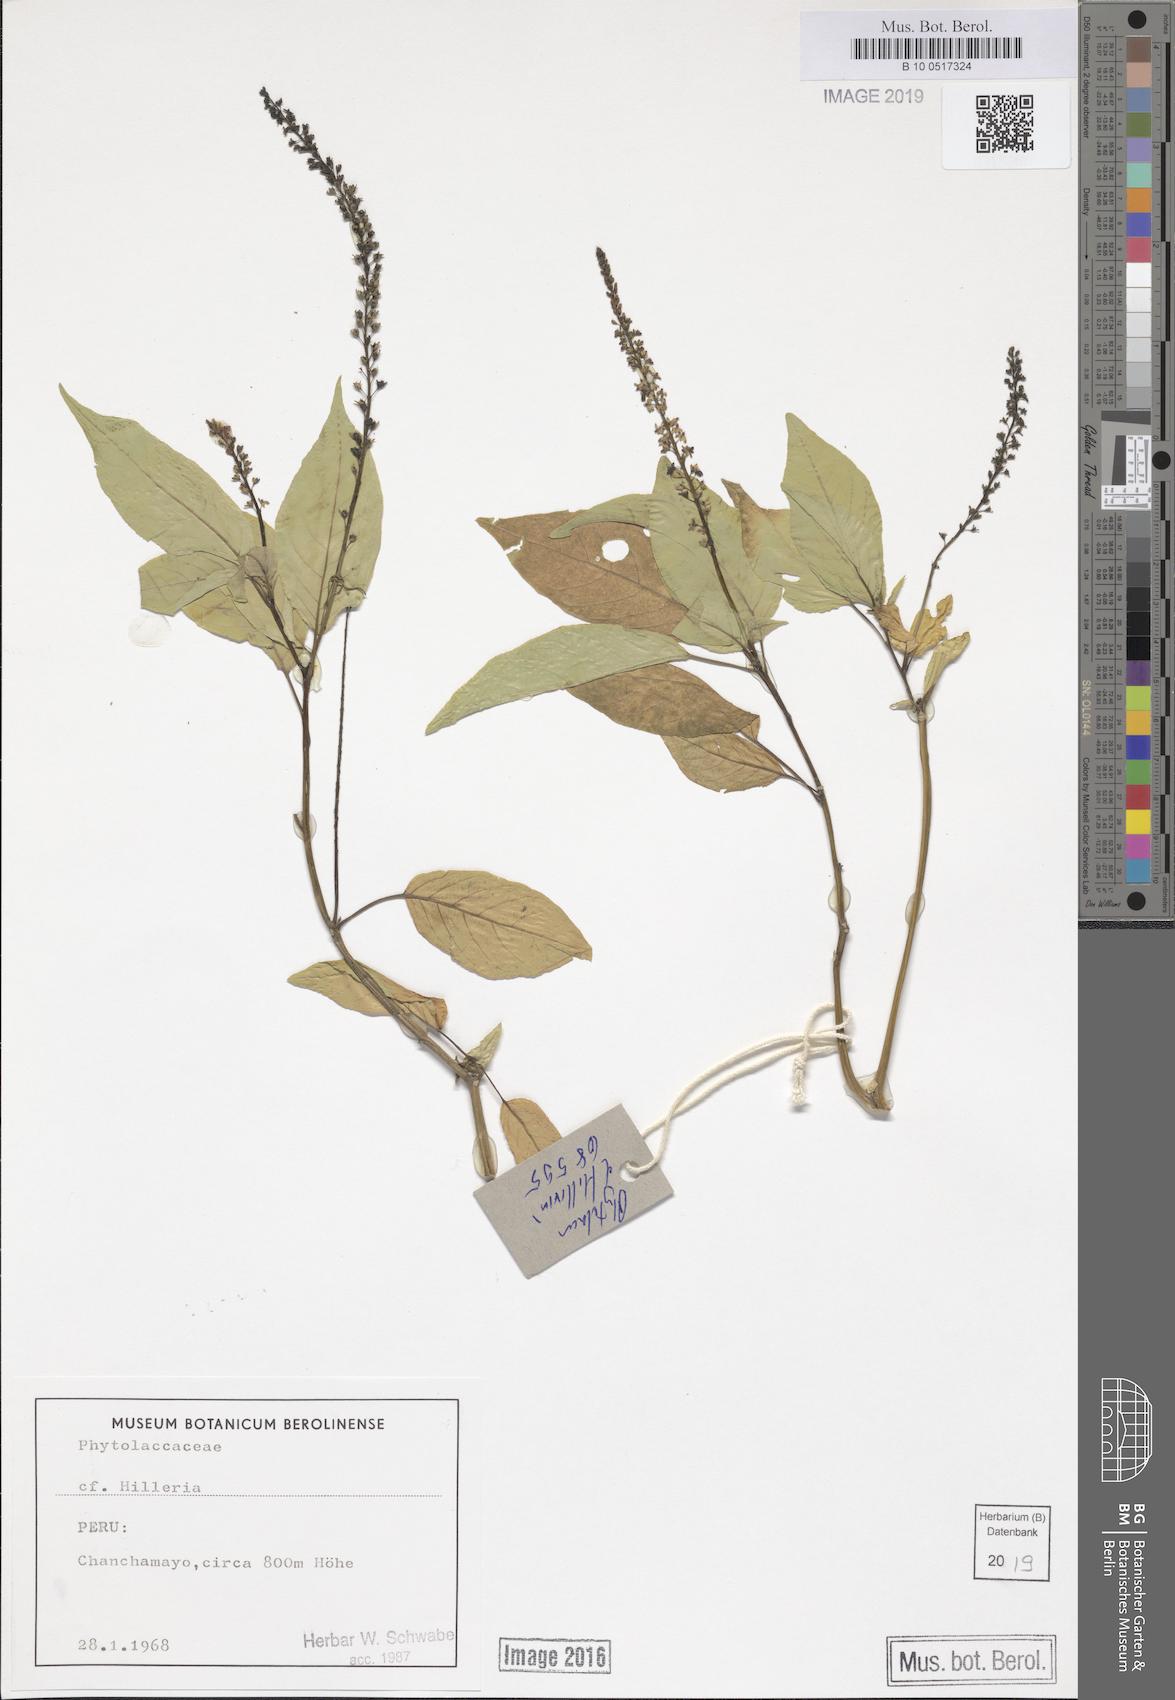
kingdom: Plantae
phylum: Tracheophyta
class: Magnoliopsida
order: Caryophyllales
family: Phytolaccaceae
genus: Hilleria
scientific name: Hilleria
